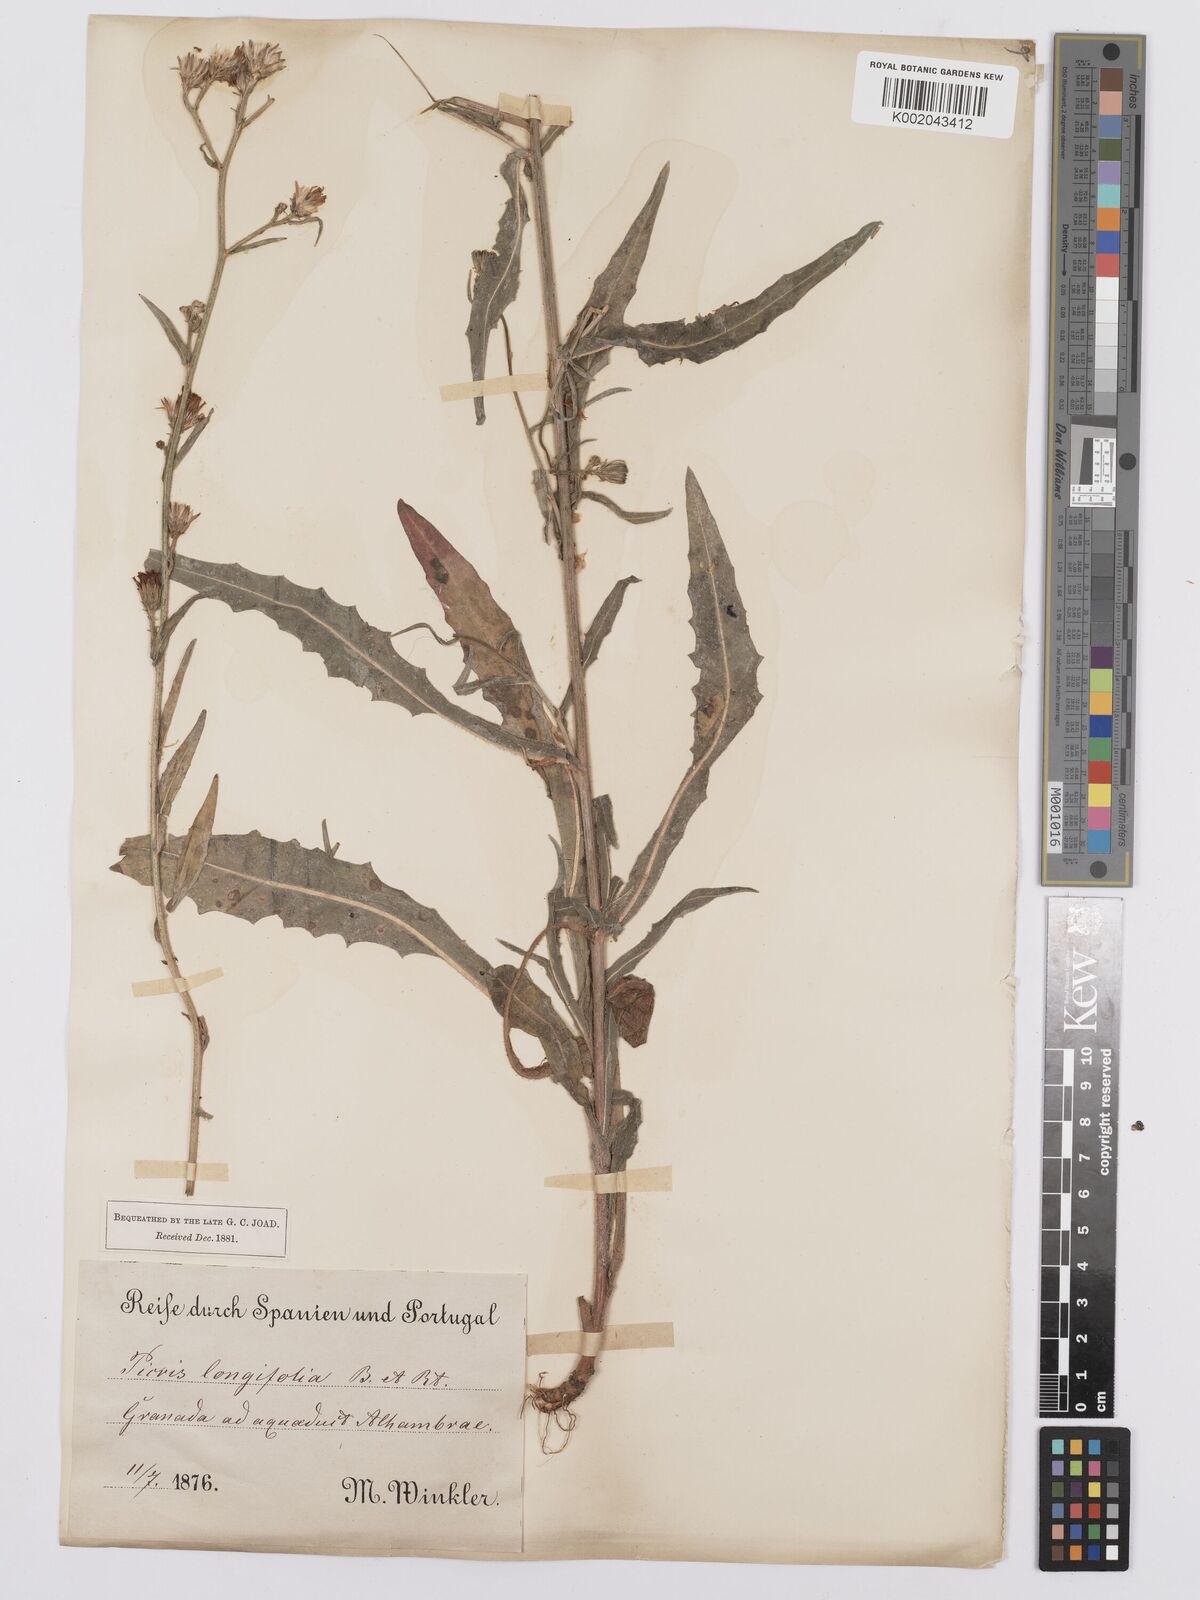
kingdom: Plantae
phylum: Tracheophyta
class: Magnoliopsida
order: Asterales
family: Asteraceae
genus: Picris
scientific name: Picris hieracioides
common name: Hawkweed oxtongue
